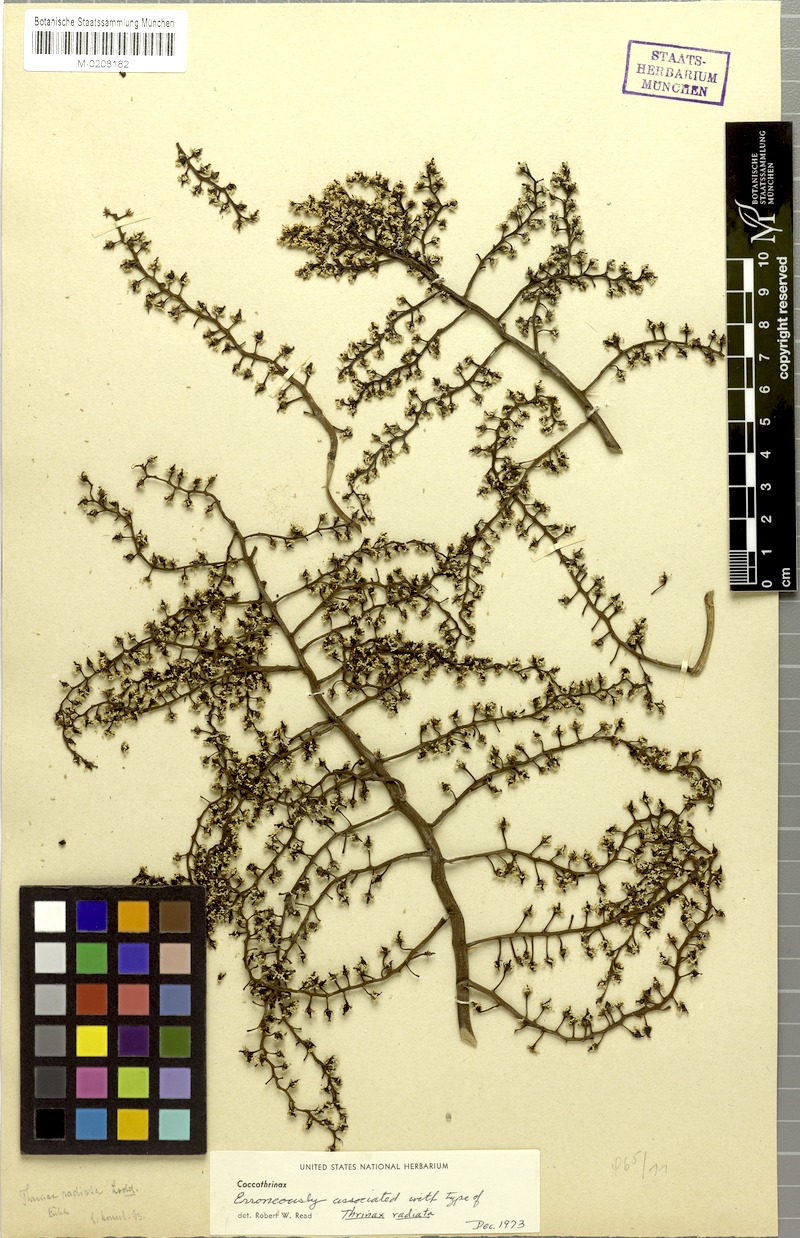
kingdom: Plantae
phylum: Tracheophyta
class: Liliopsida
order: Arecales
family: Arecaceae
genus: Coccothrinax
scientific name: Coccothrinax
